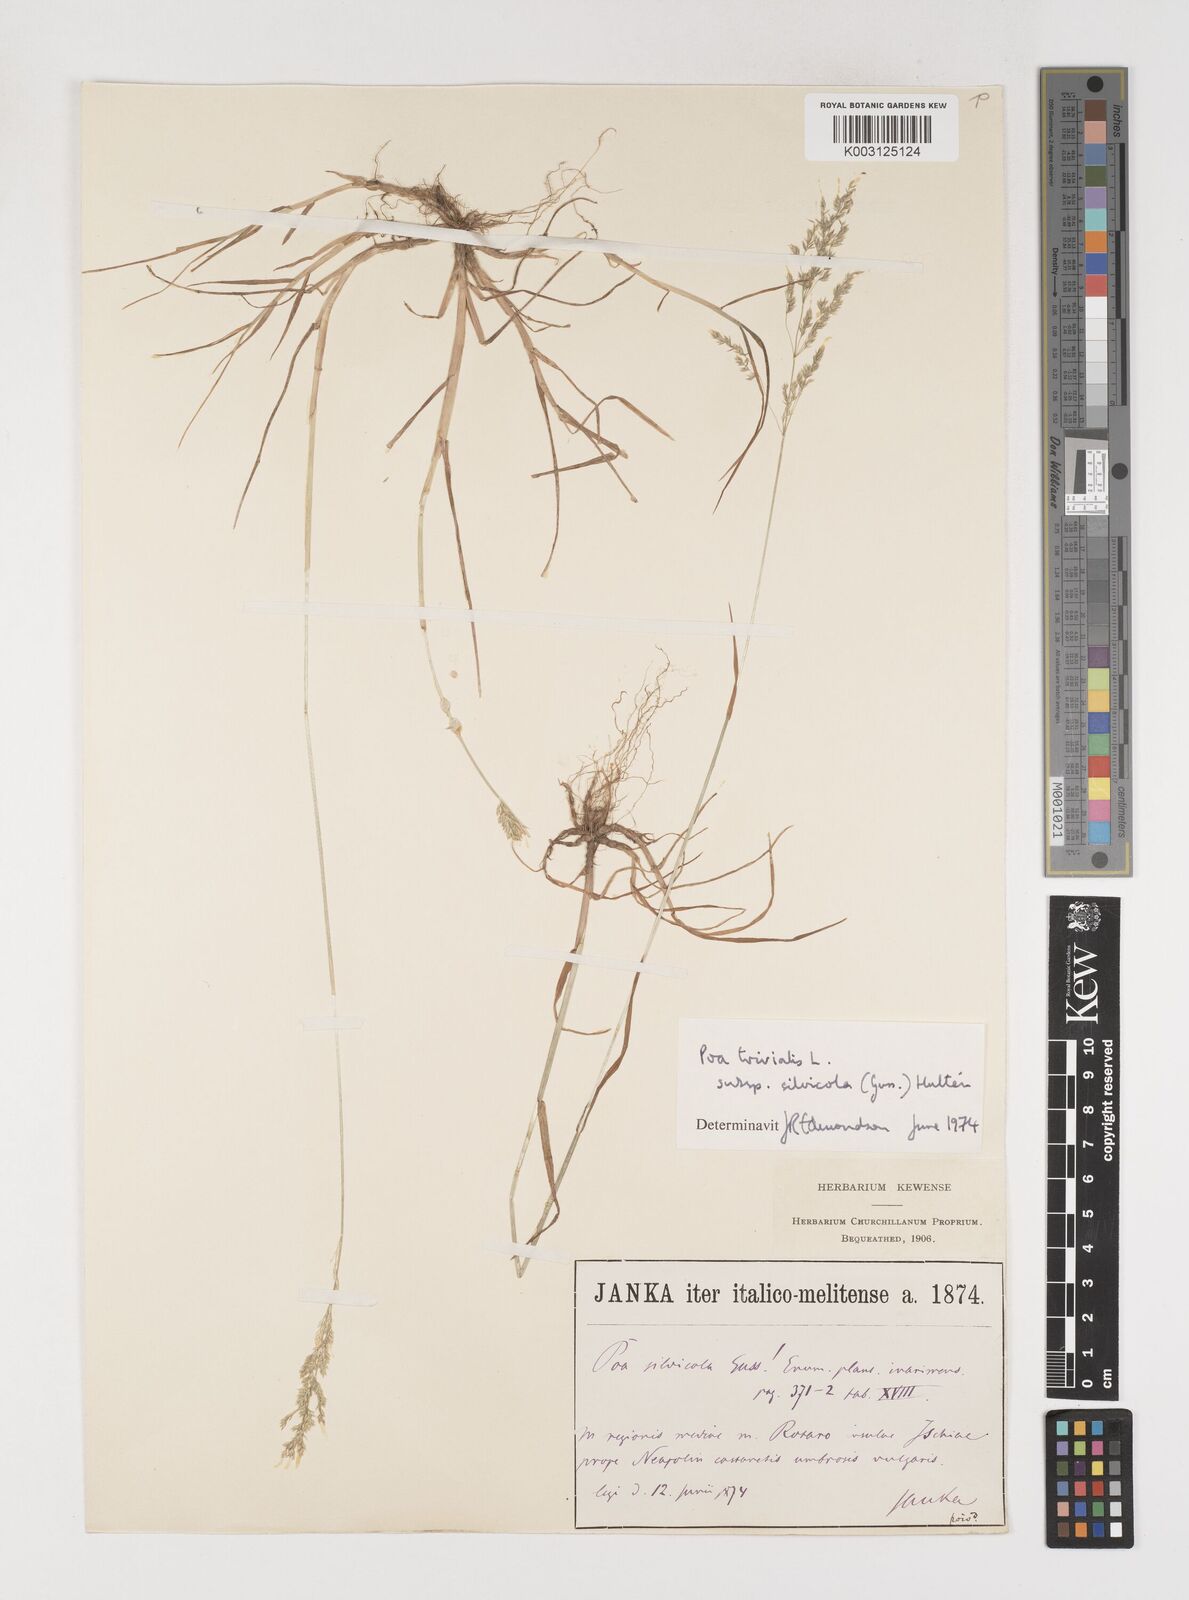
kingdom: Plantae
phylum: Tracheophyta
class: Liliopsida
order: Poales
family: Poaceae
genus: Poa
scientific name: Poa trivialis
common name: Rough bluegrass
